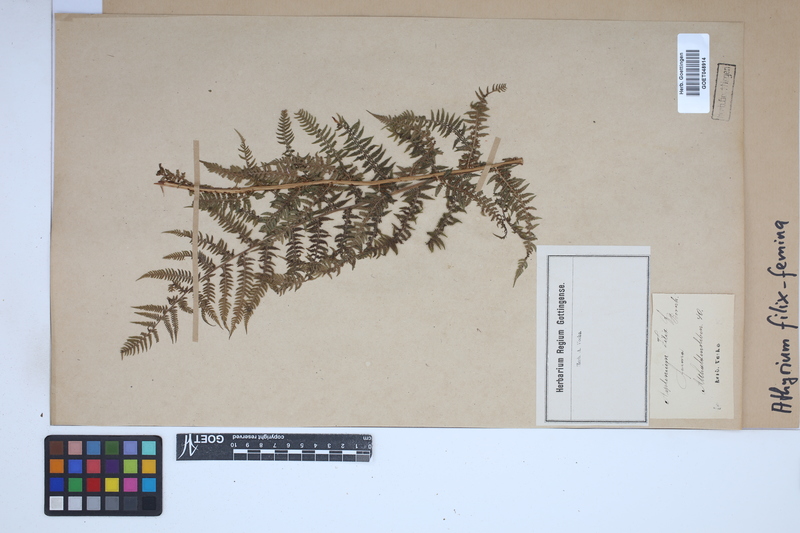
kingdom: Plantae
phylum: Tracheophyta
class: Polypodiopsida
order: Polypodiales
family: Athyriaceae
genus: Athyrium
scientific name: Athyrium filix-femina
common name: Lady fern
